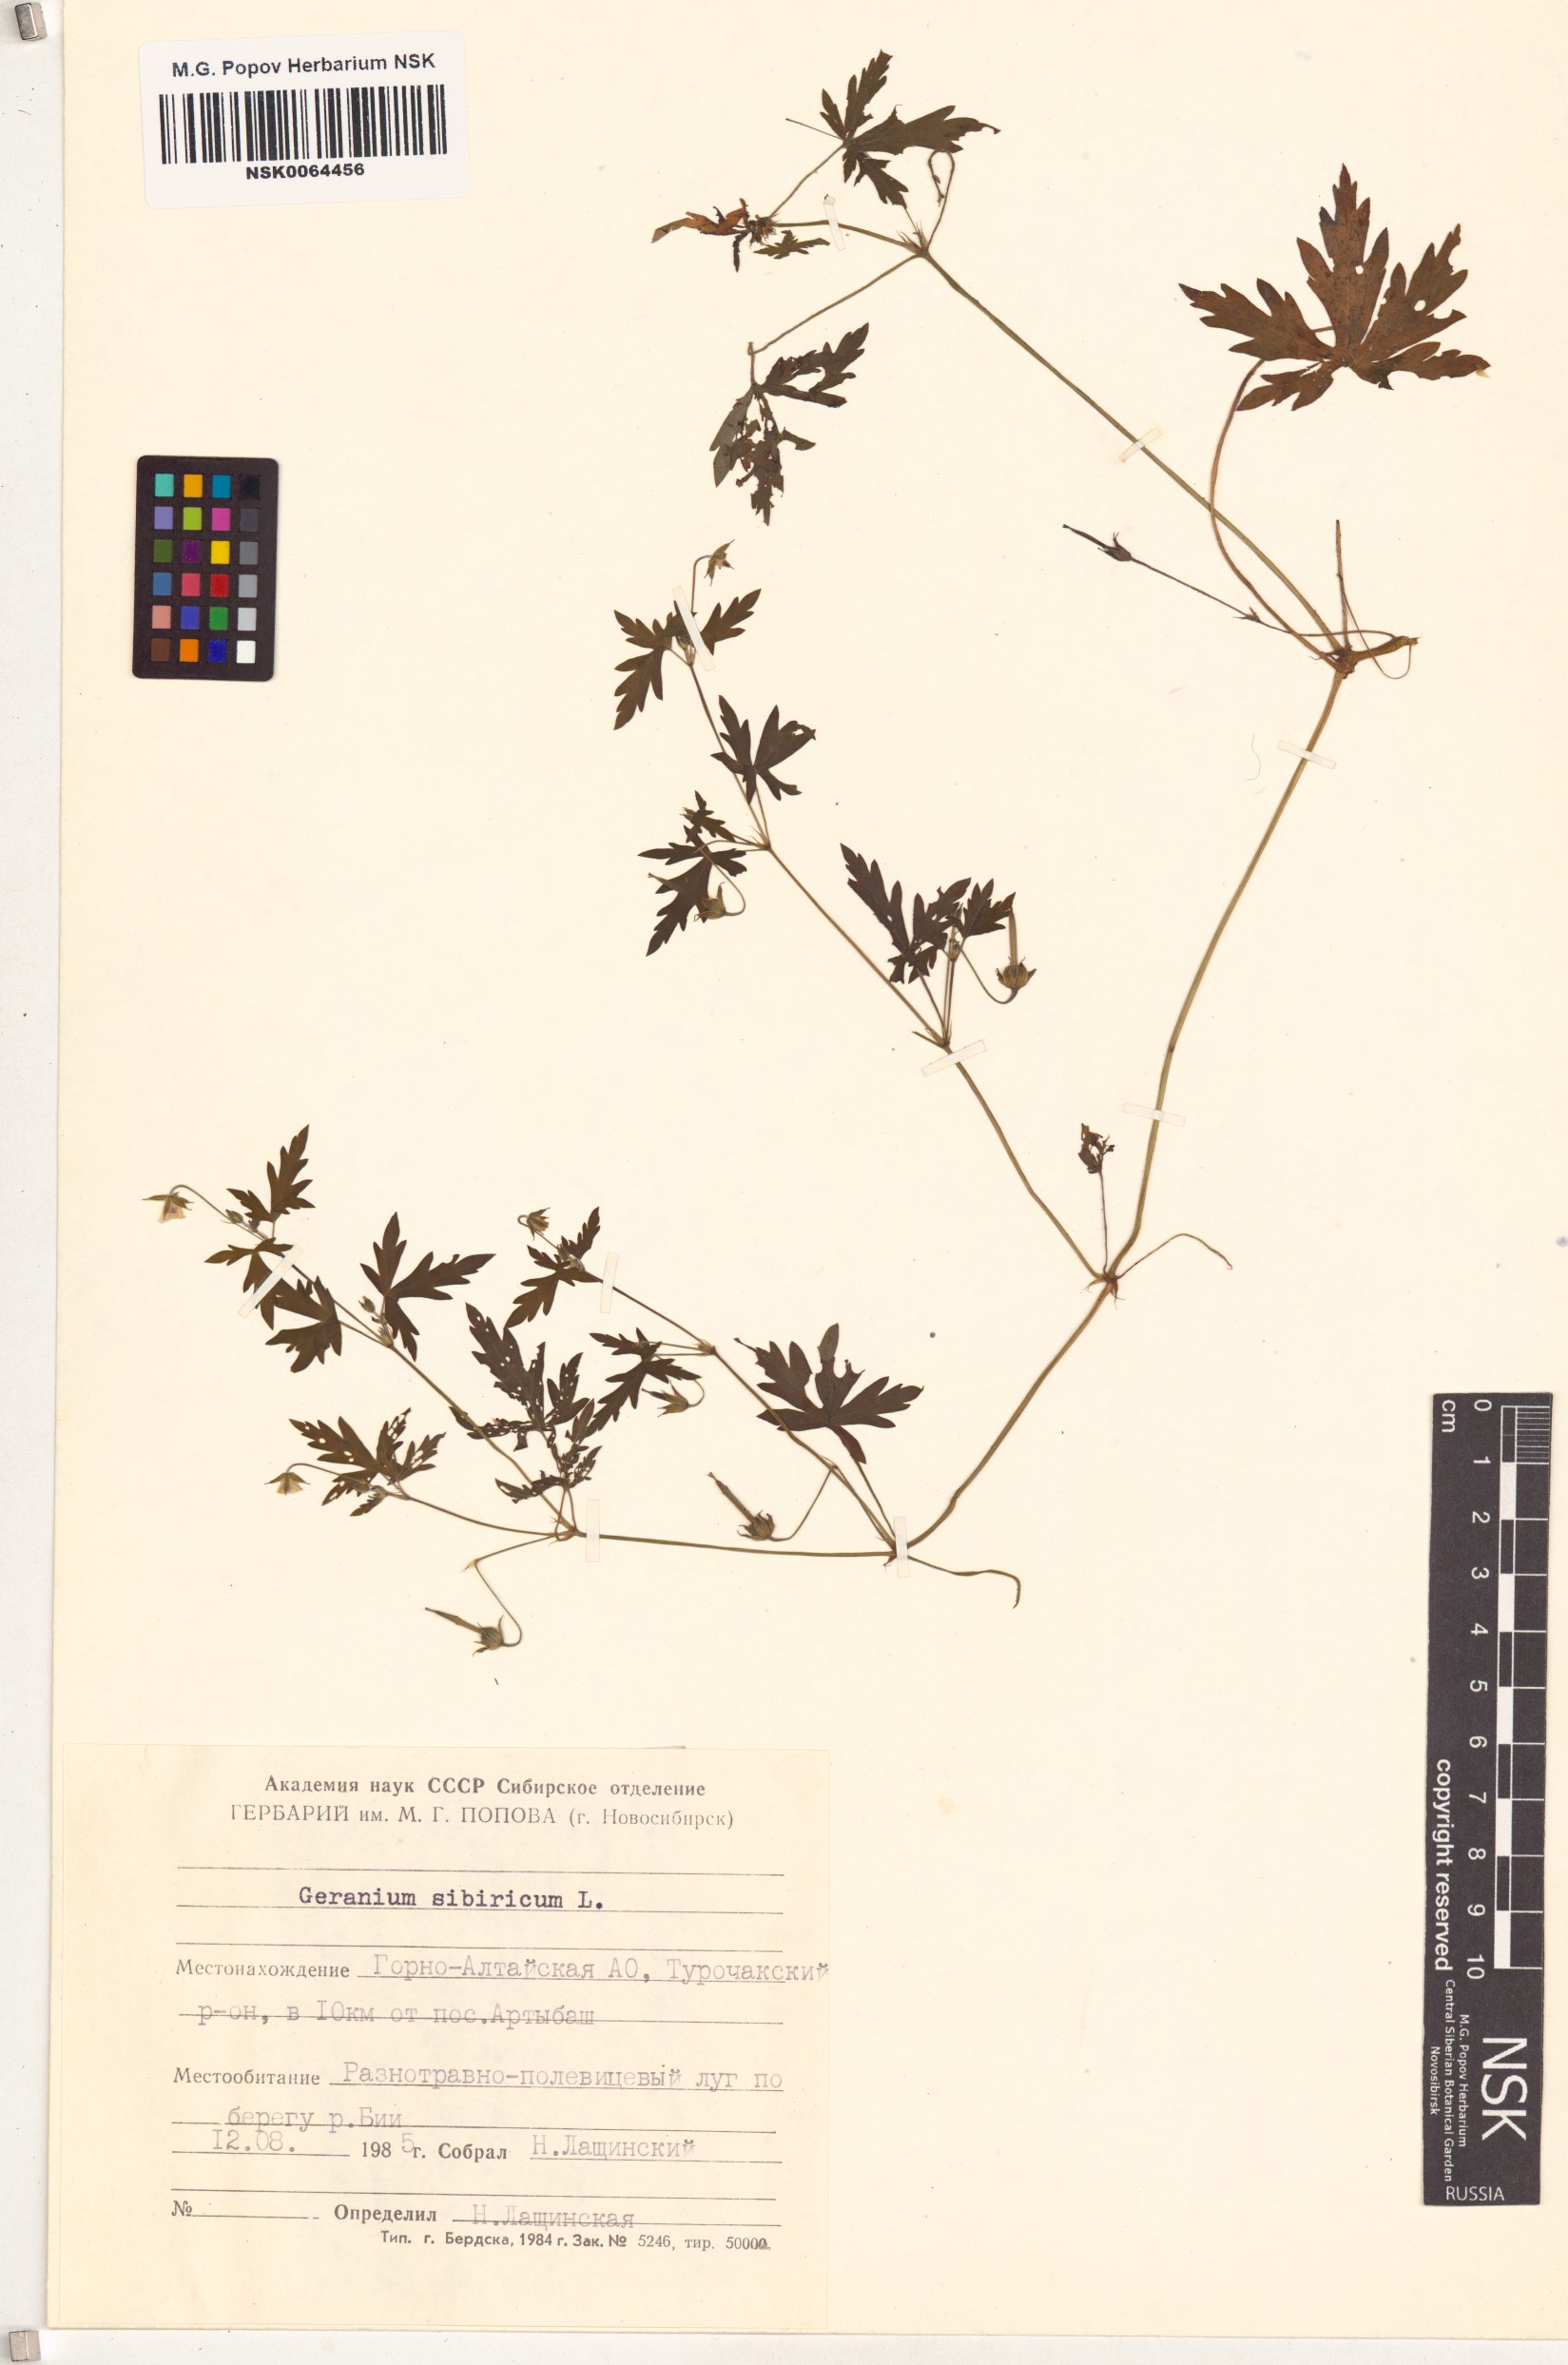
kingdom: Plantae
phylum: Tracheophyta
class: Magnoliopsida
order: Geraniales
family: Geraniaceae
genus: Geranium
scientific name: Geranium sibiricum
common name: Siberian crane's-bill
